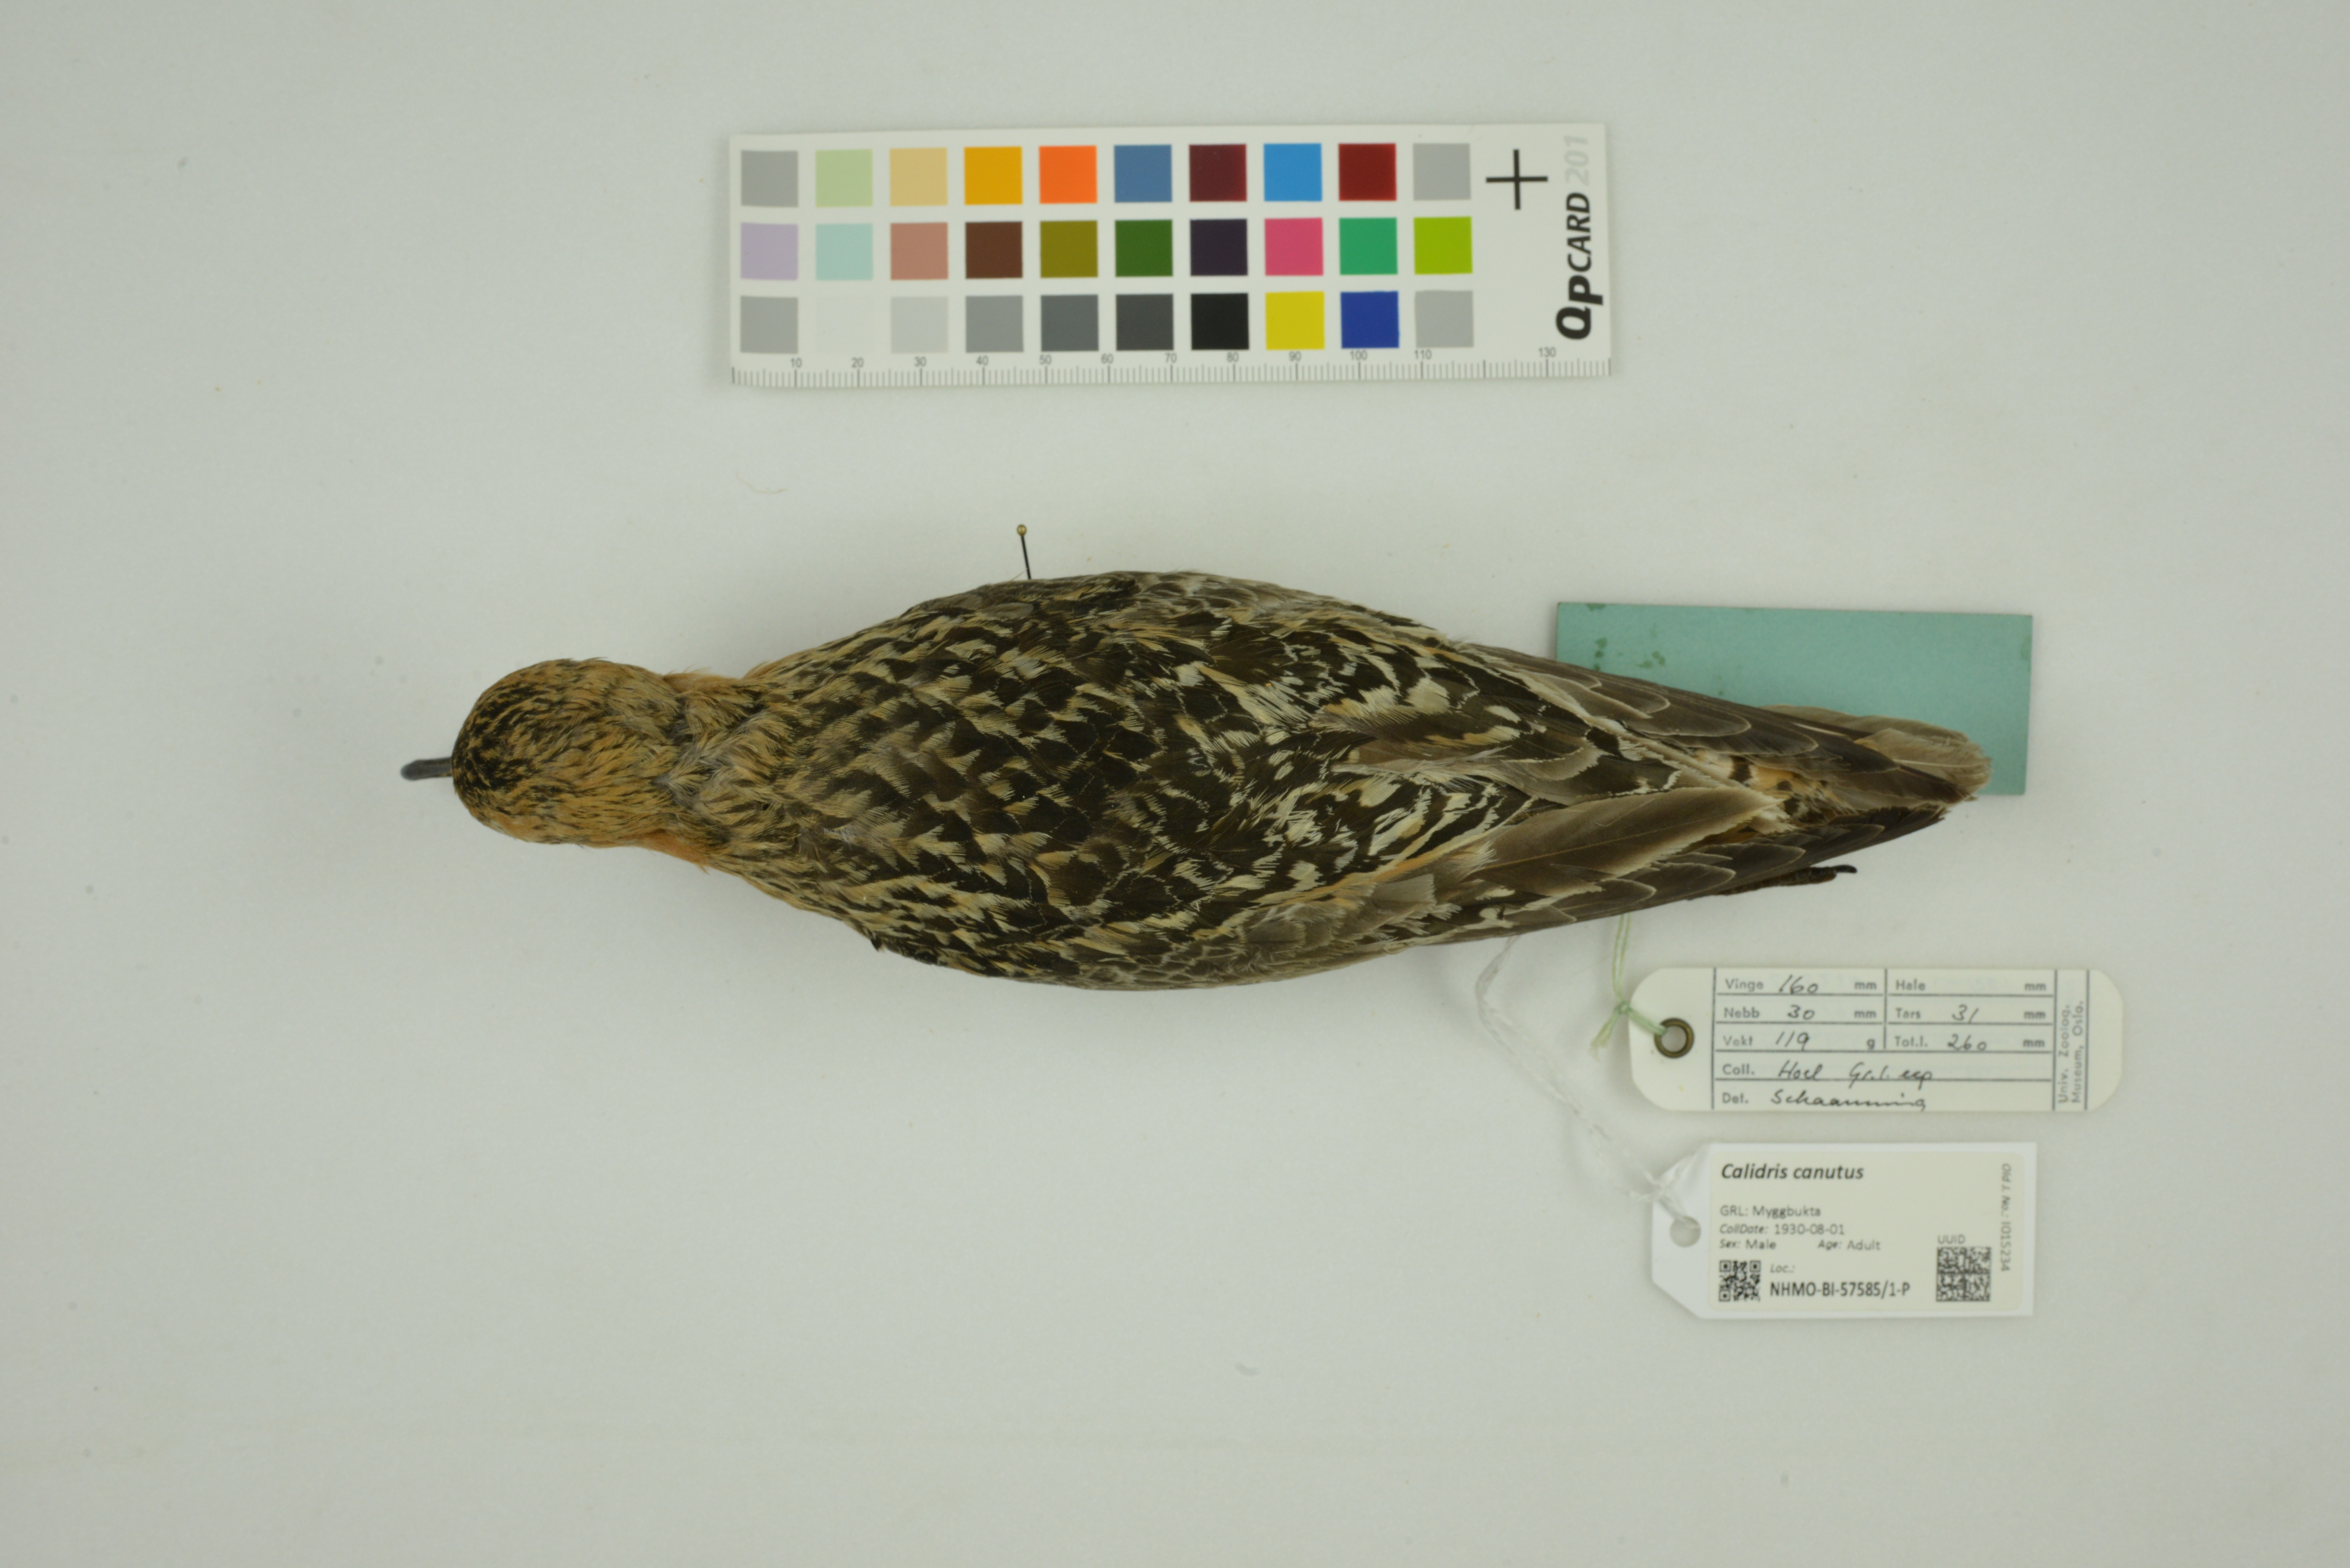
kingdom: Animalia
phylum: Chordata
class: Aves
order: Charadriiformes
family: Scolopacidae
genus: Calidris
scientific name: Calidris canutus
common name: Red knot
